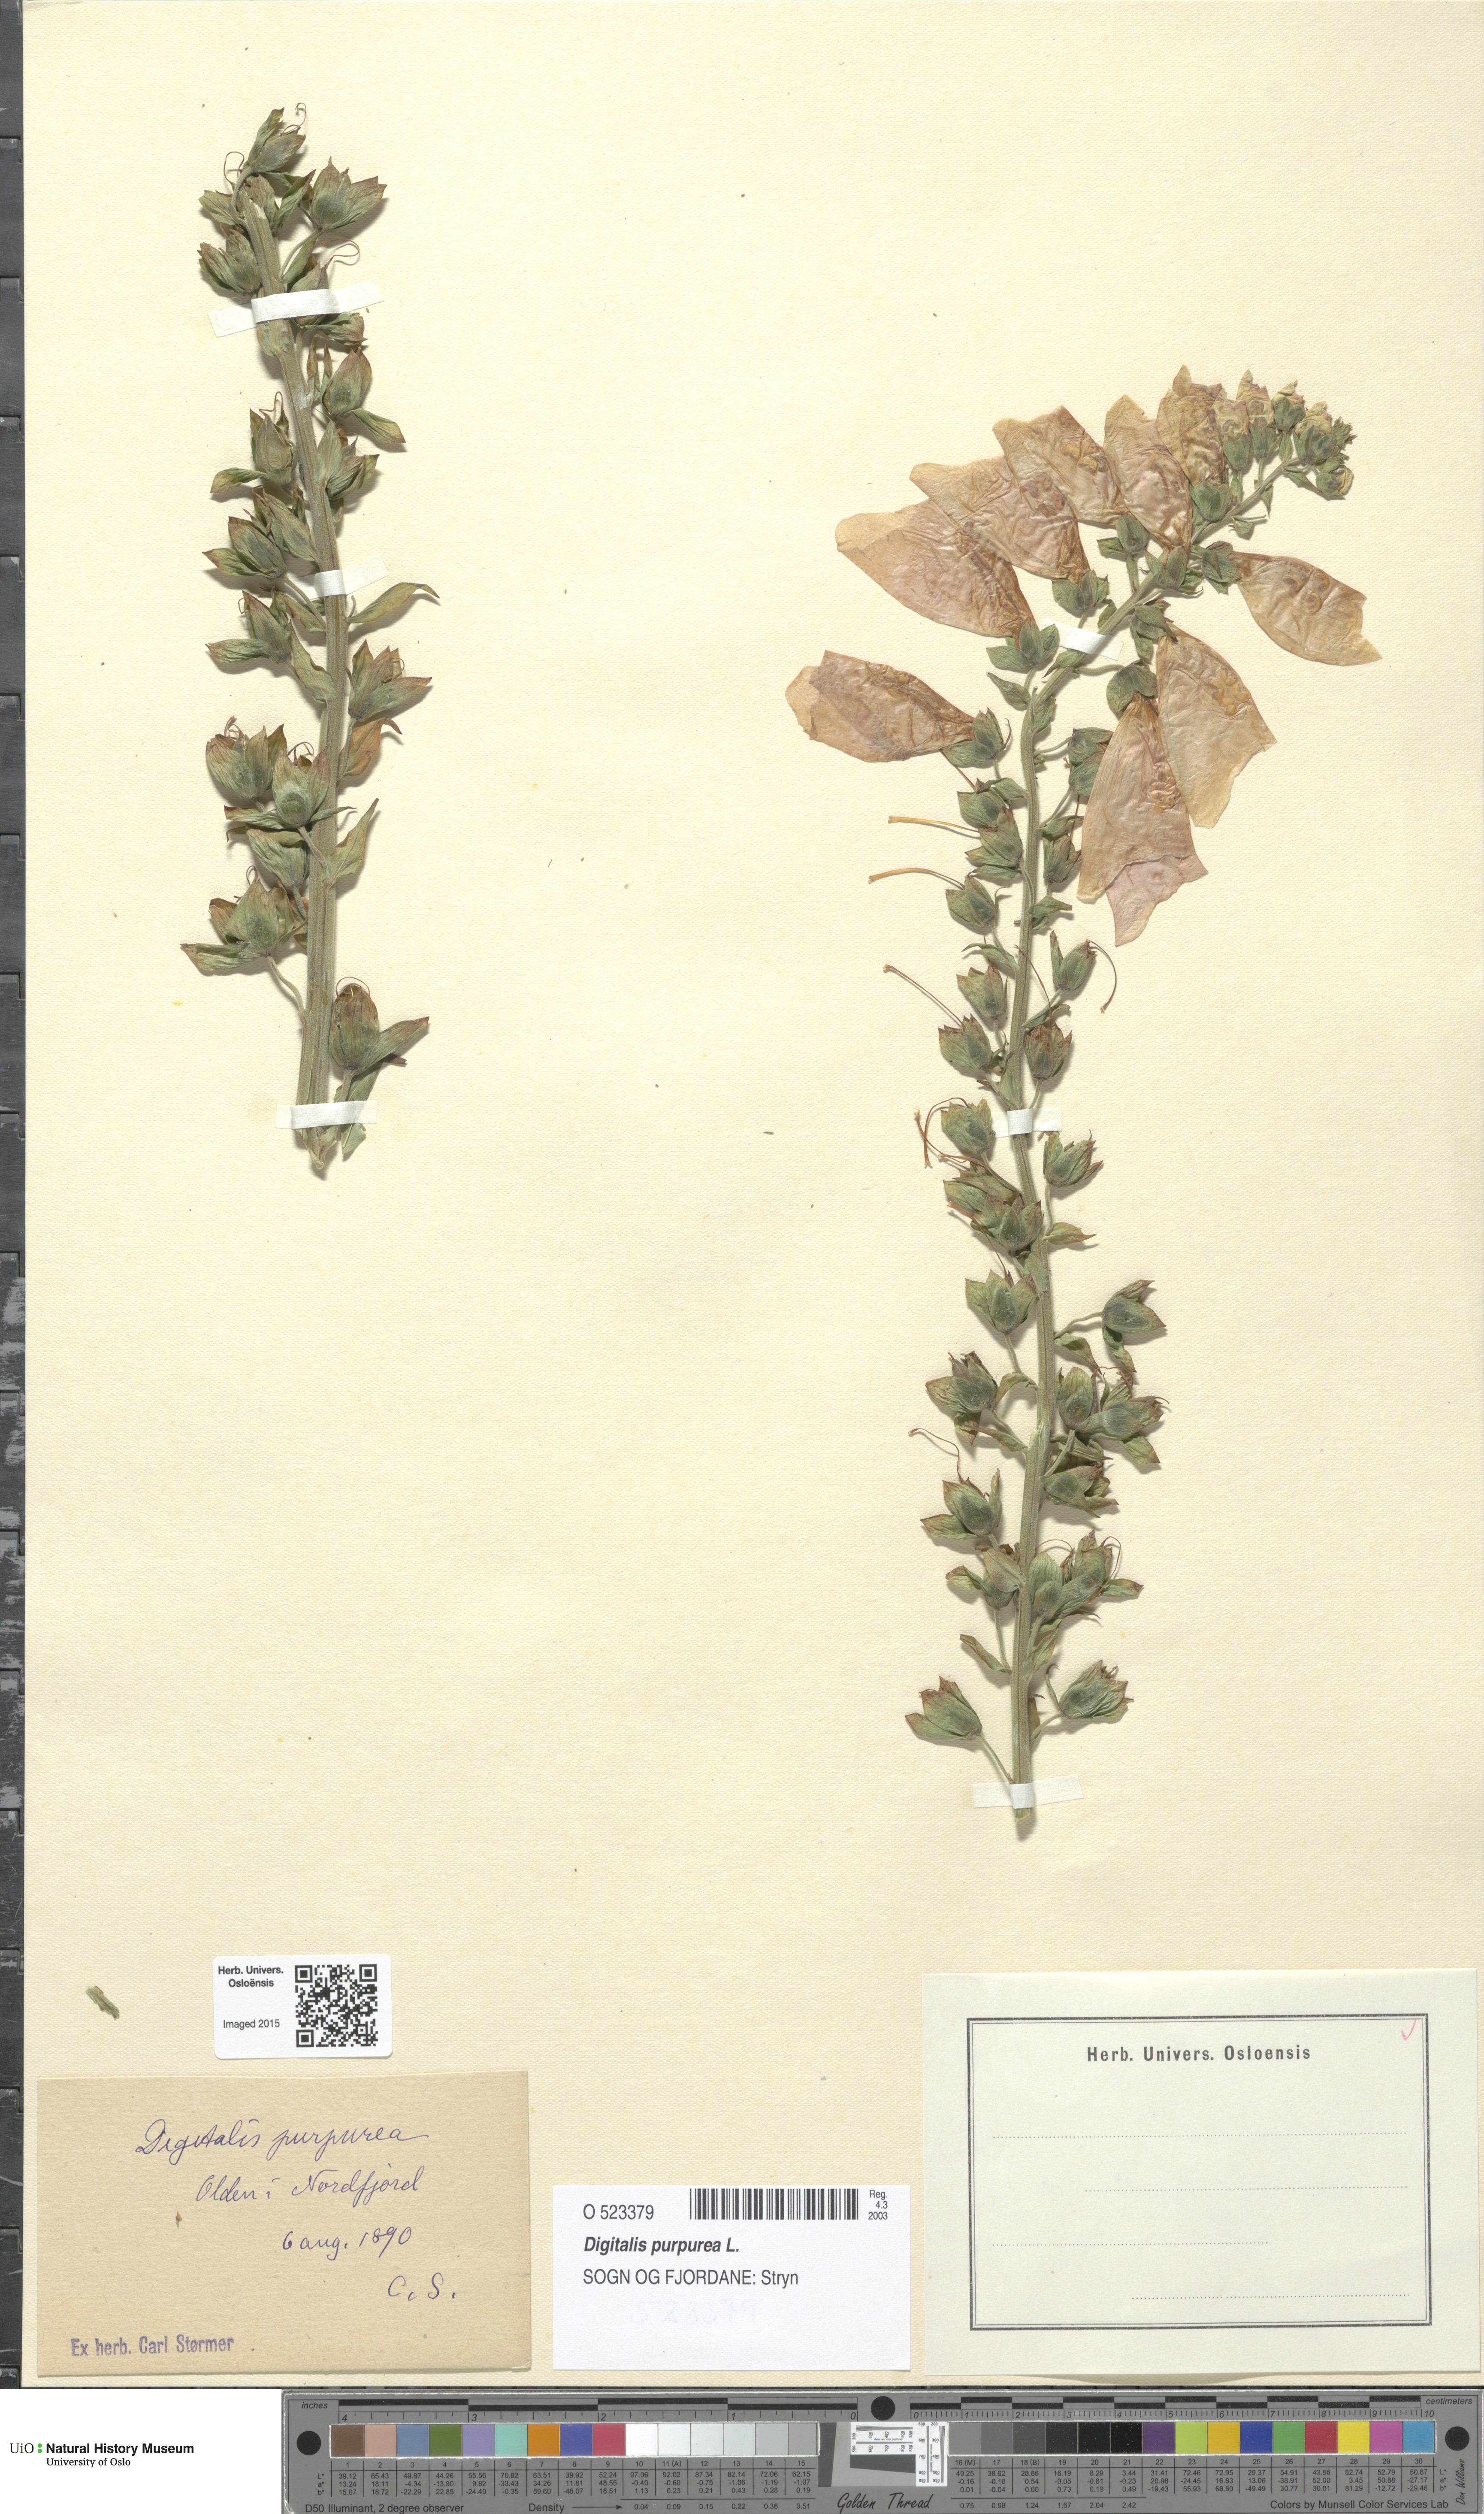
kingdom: Plantae
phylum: Tracheophyta
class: Magnoliopsida
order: Lamiales
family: Plantaginaceae
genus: Digitalis
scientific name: Digitalis purpurea
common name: Foxglove
